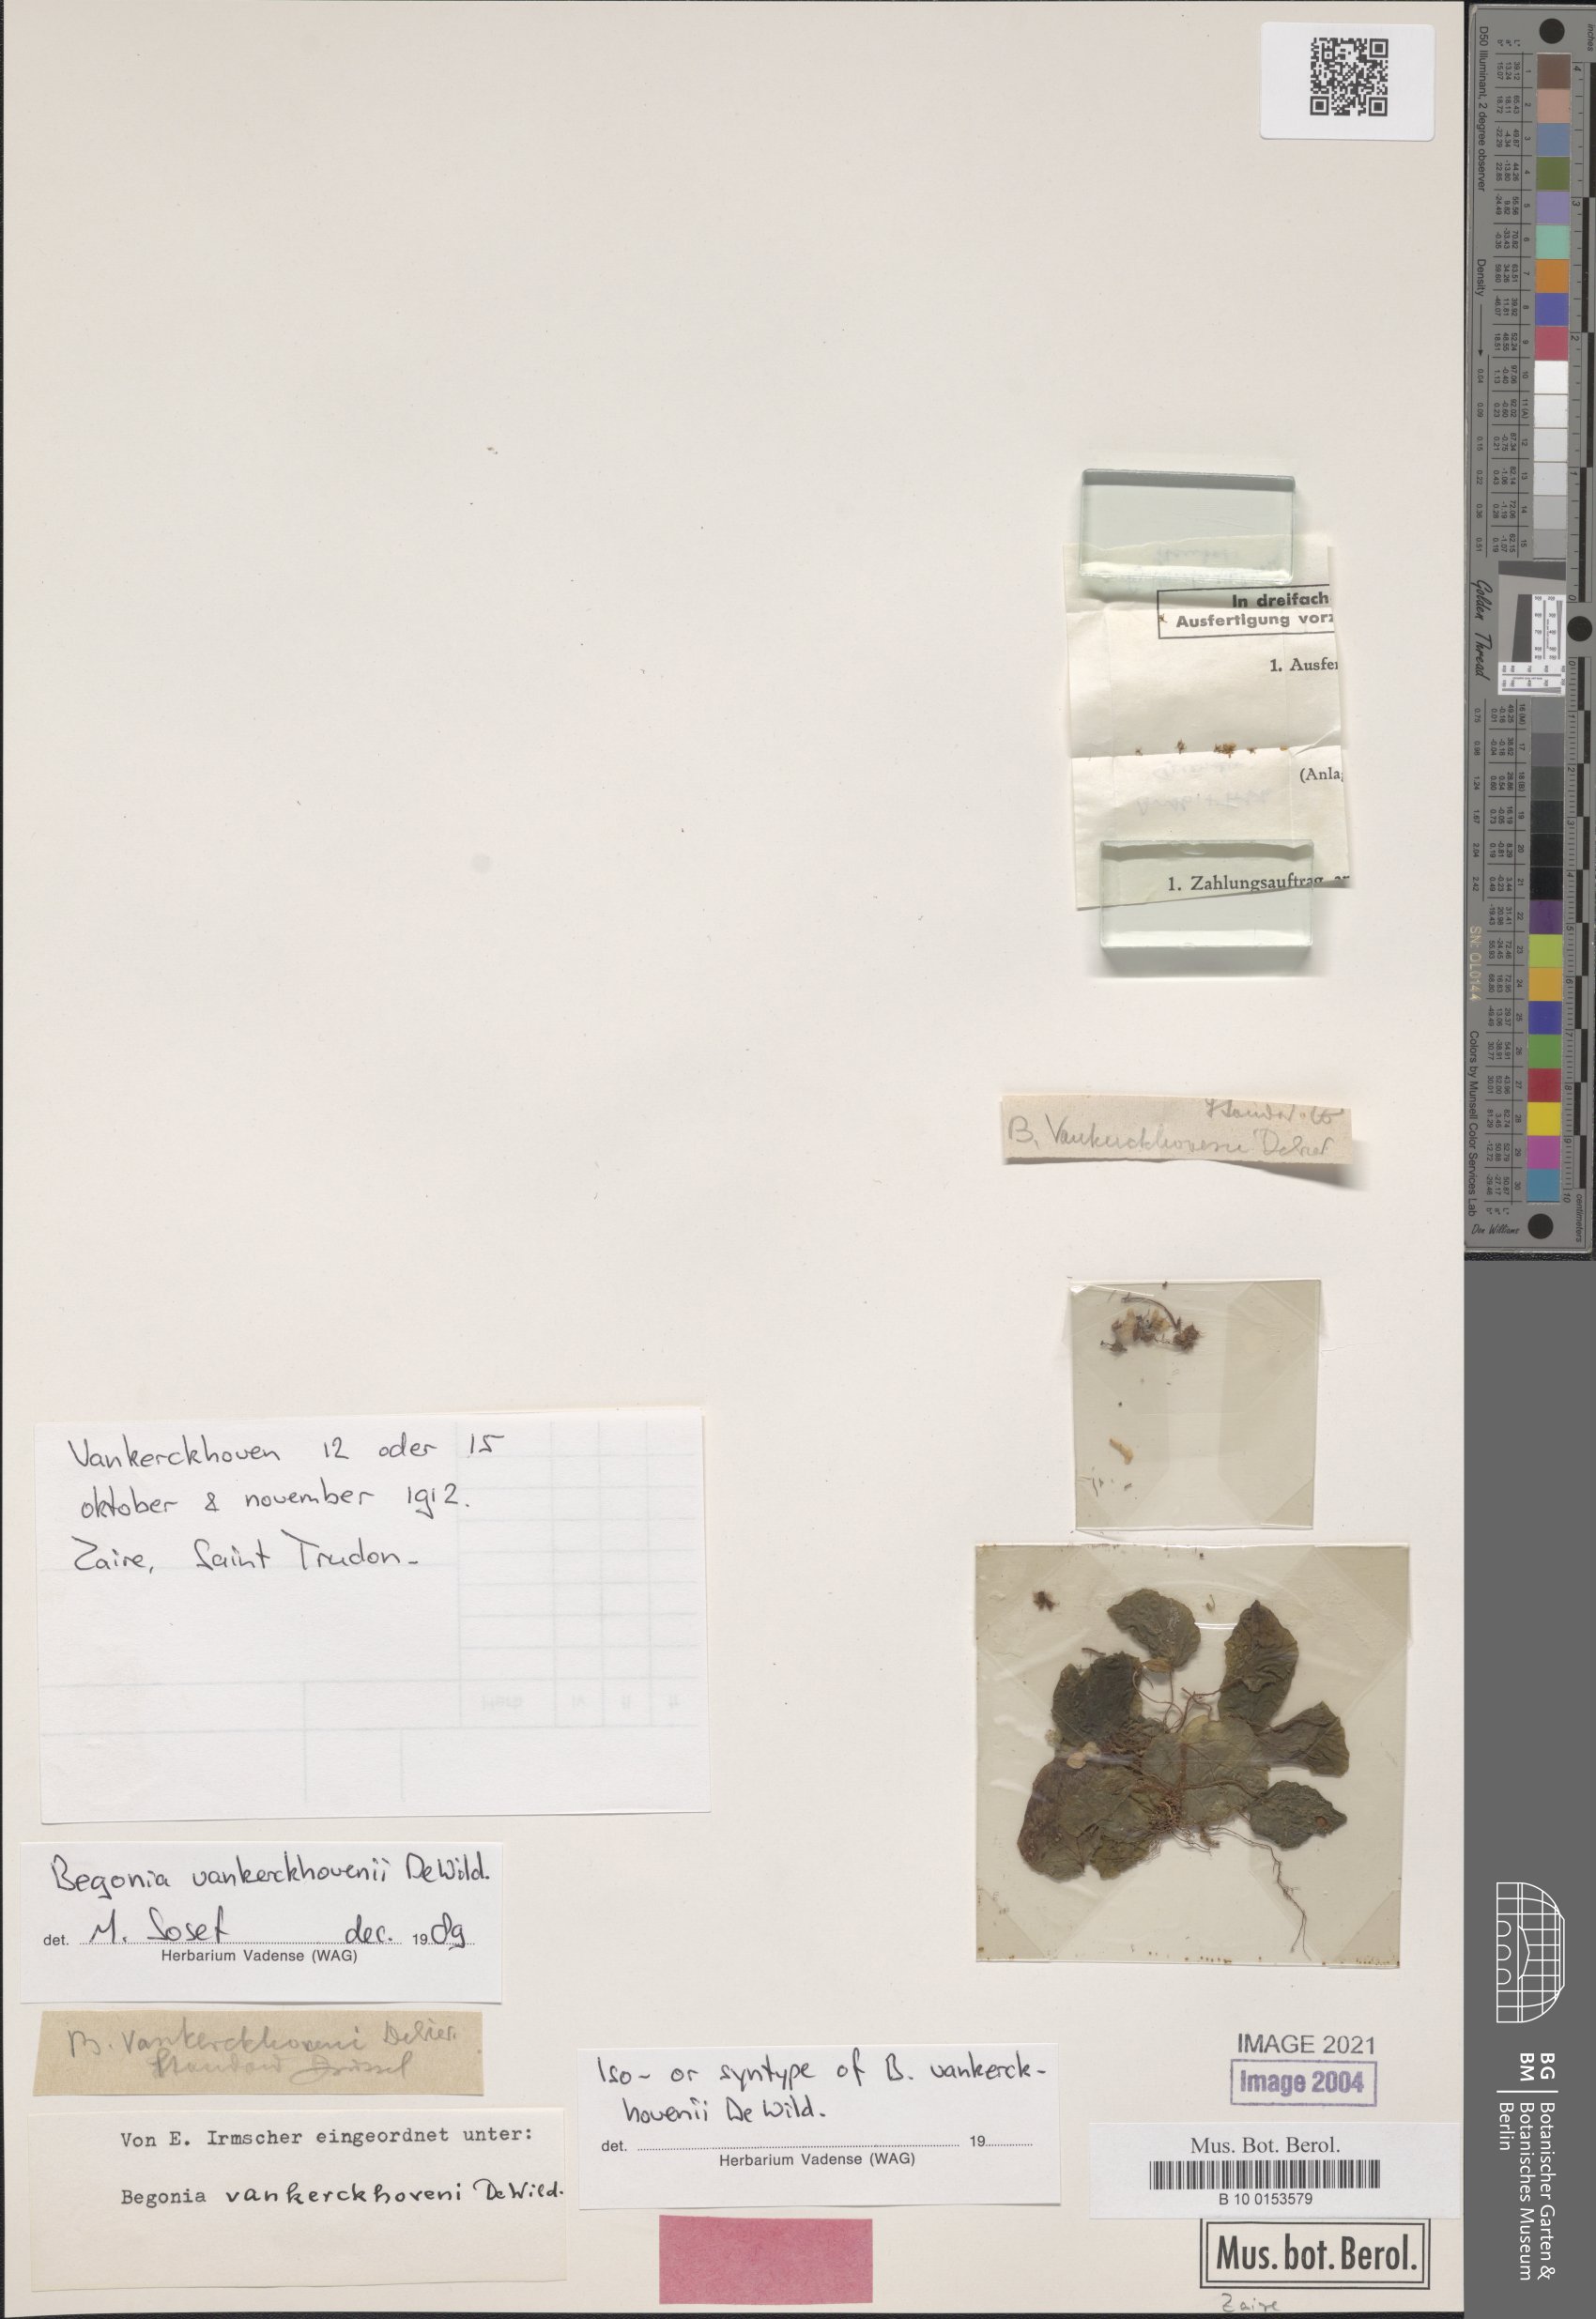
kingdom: Plantae
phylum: Tracheophyta
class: Magnoliopsida
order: Cucurbitales
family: Begoniaceae
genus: Begonia
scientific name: Begonia vankerckhovenii
